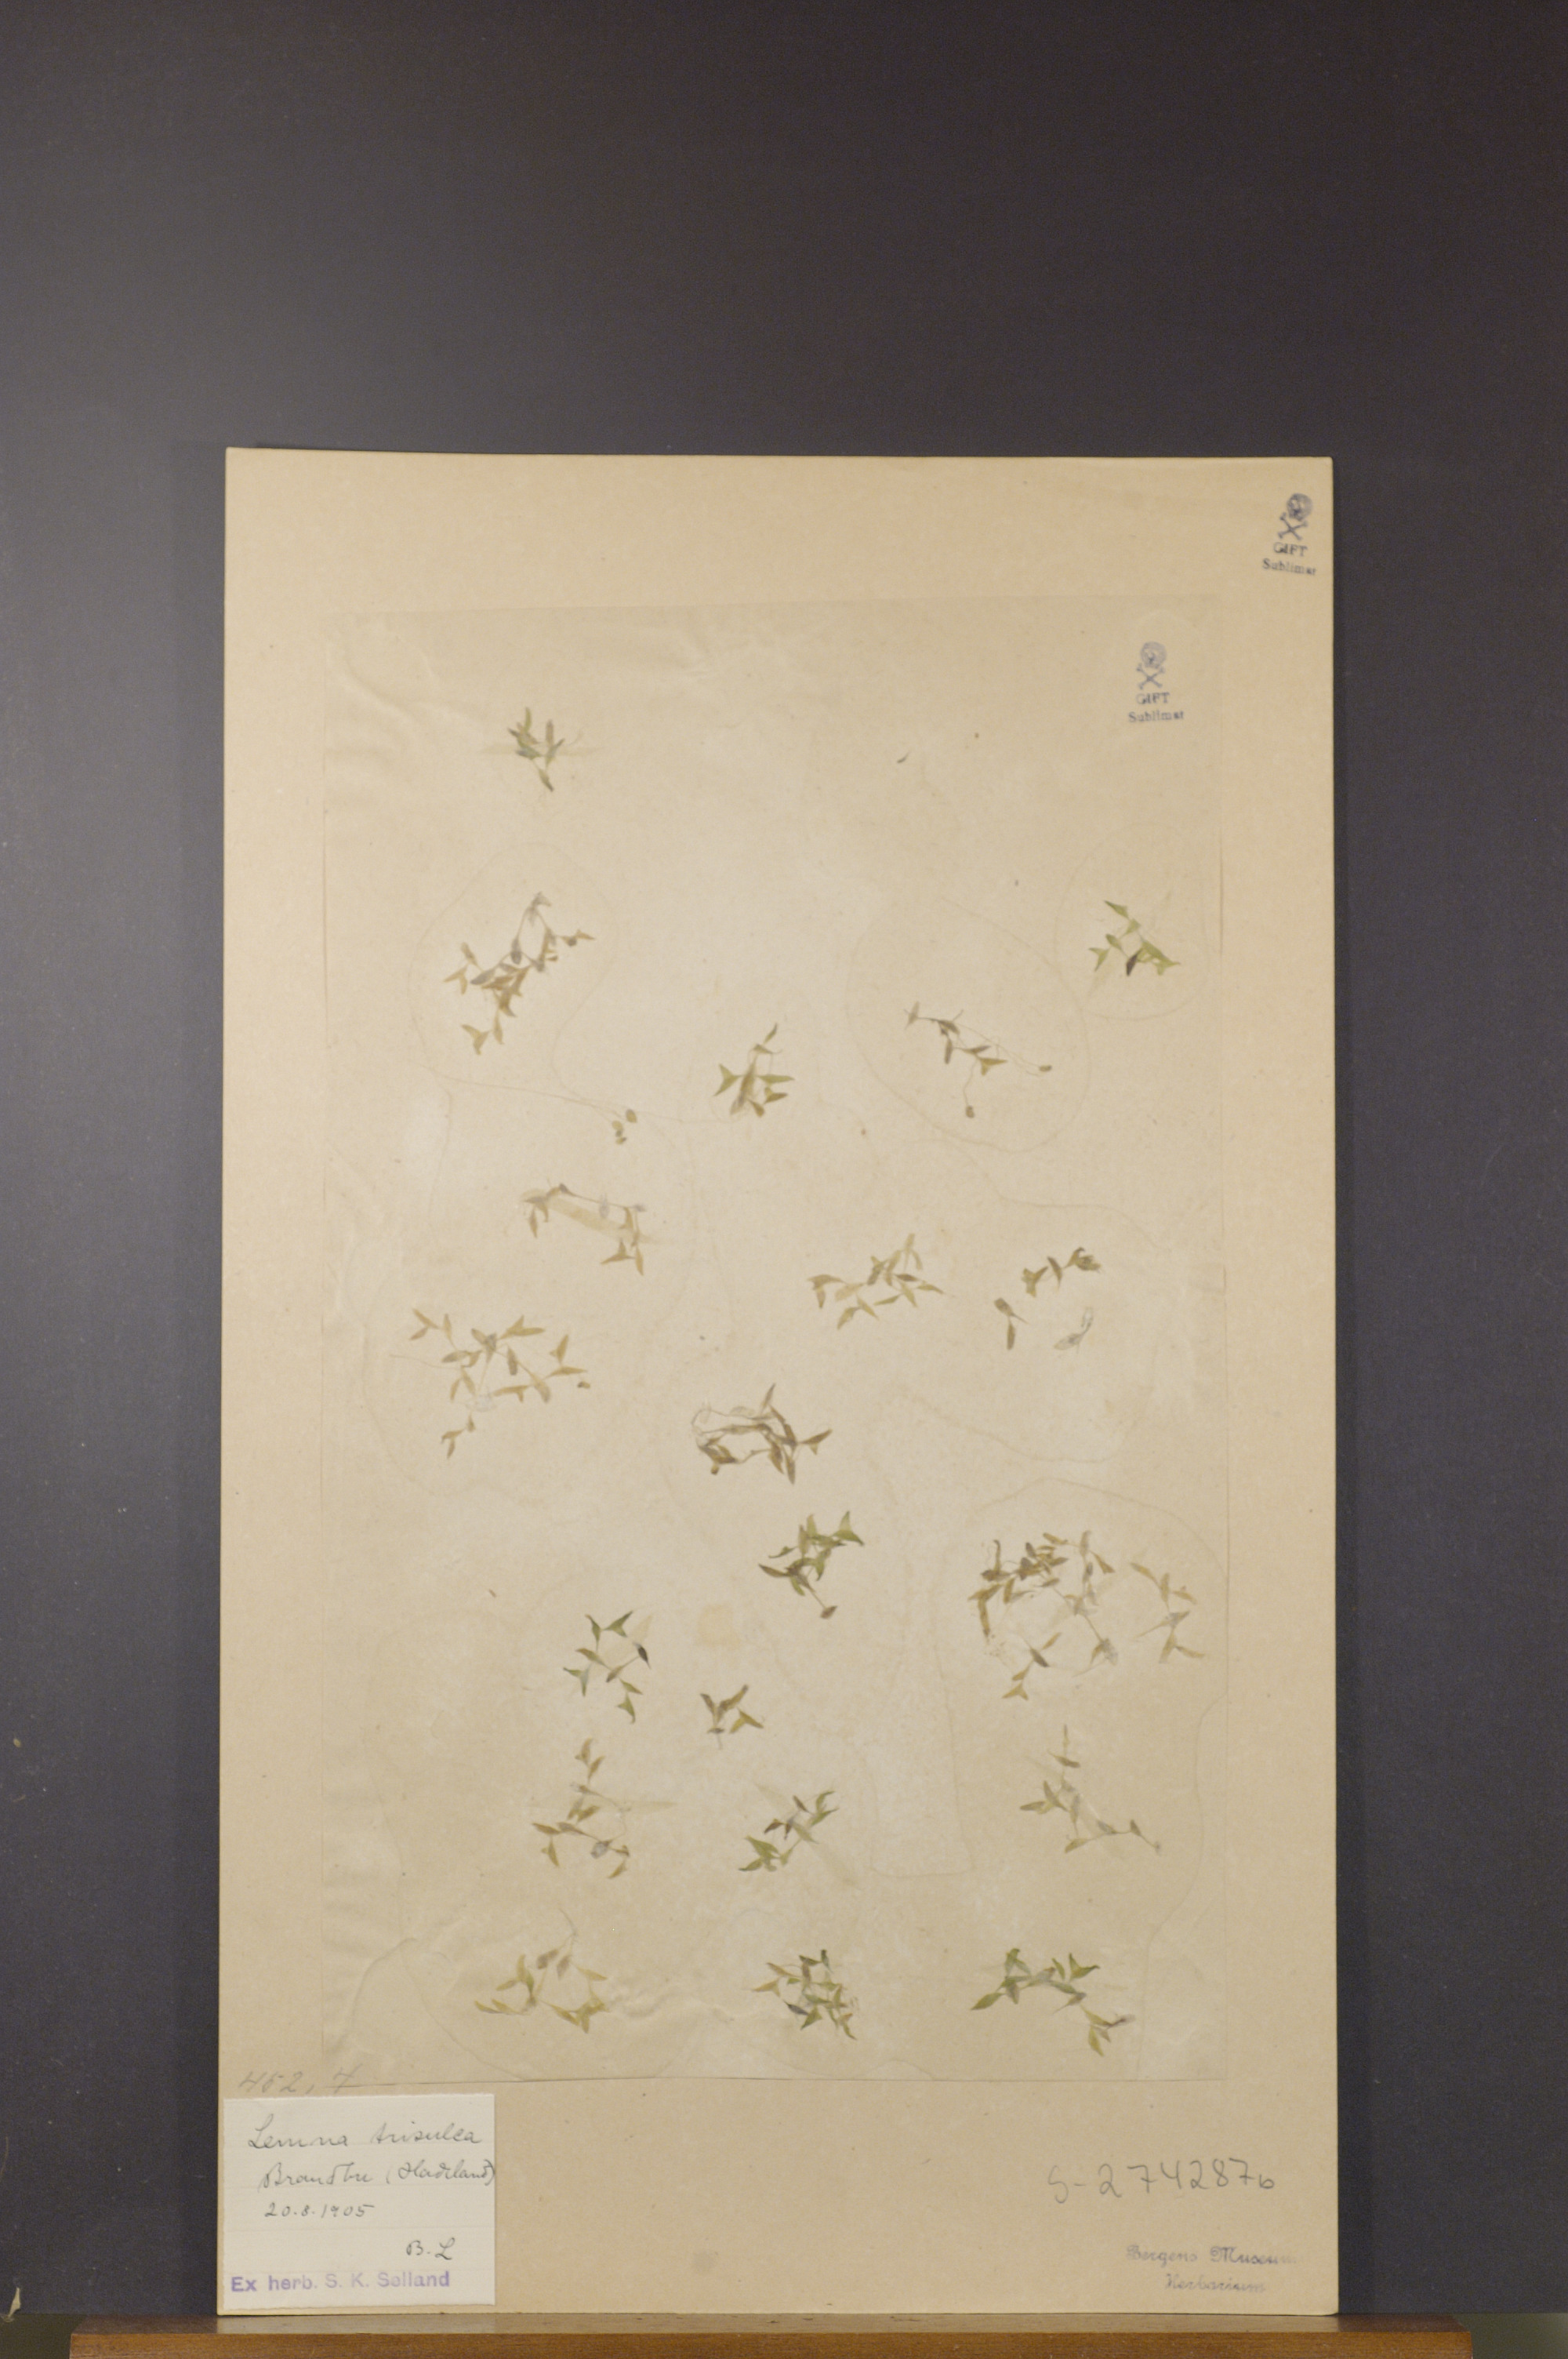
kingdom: Plantae
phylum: Tracheophyta
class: Liliopsida
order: Alismatales
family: Araceae
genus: Lemna
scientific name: Lemna trisulca
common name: Ivy-leaved duckweed
